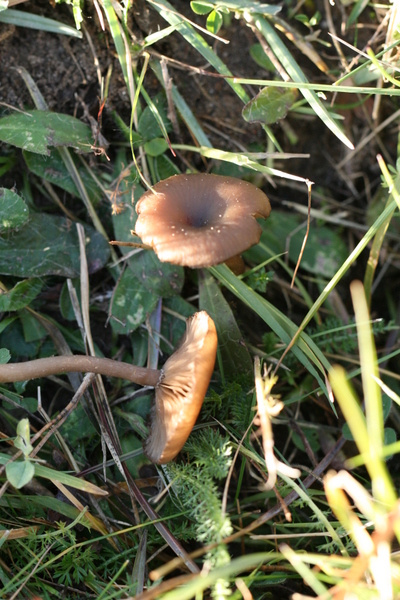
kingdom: Fungi
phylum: Basidiomycota
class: Agaricomycetes
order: Agaricales
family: Pseudoclitocybaceae
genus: Pseudoclitocybe
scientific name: Pseudoclitocybe expallens
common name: lille bægertragthat
